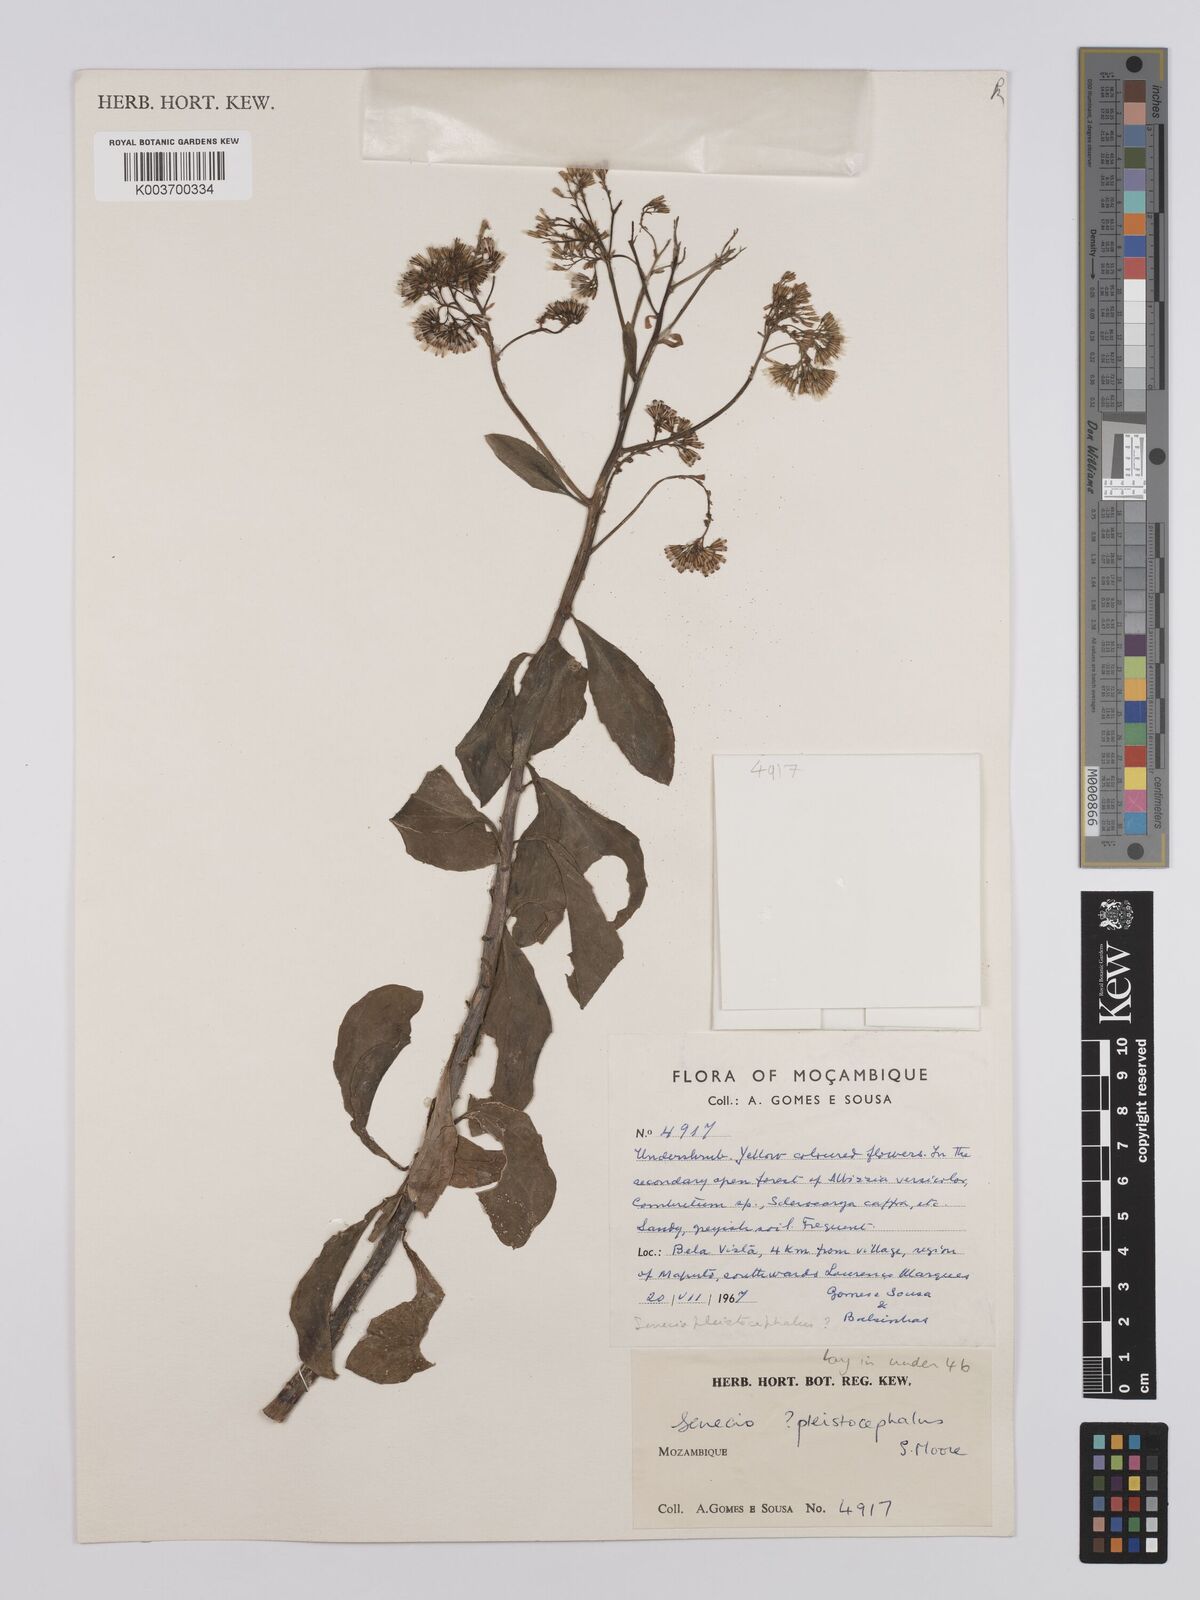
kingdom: Plantae
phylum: Tracheophyta
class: Magnoliopsida
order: Asterales
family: Asteraceae
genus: Senecio
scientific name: Senecio brachypodus
